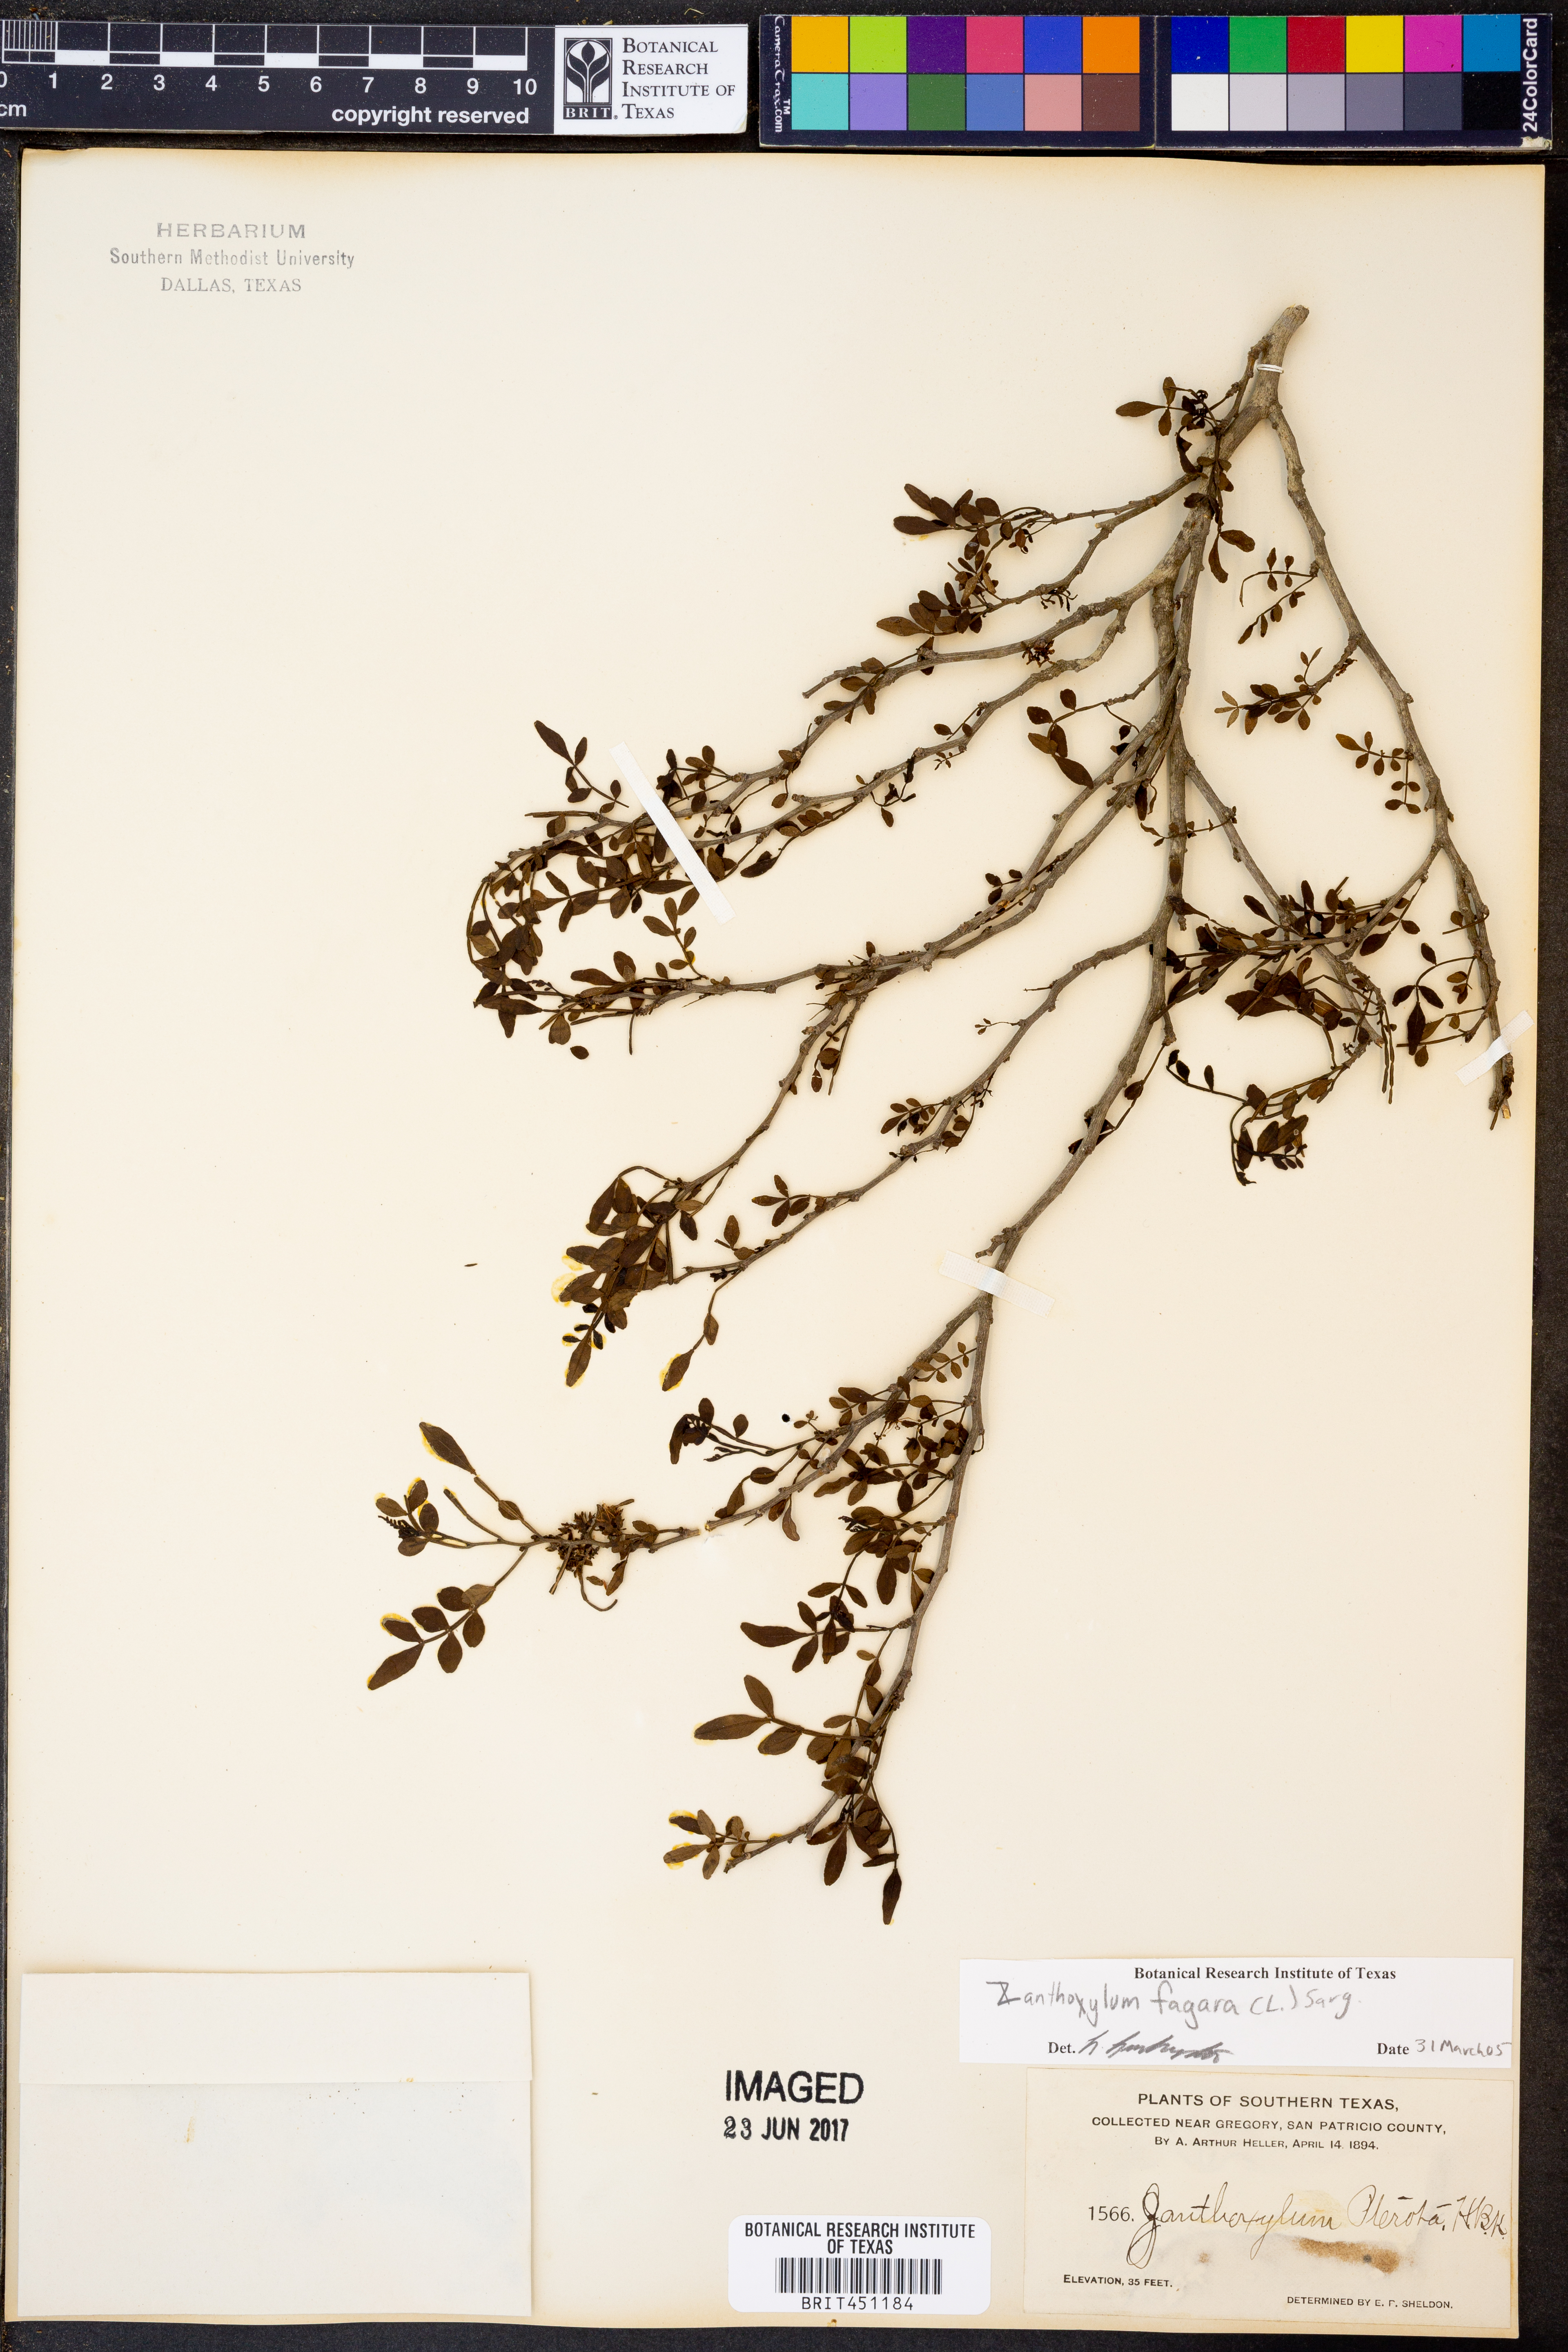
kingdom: Plantae
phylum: Tracheophyta
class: Magnoliopsida
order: Sapindales
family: Rutaceae
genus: Zanthoxylum
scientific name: Zanthoxylum fagara
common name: Lime prickly-ash
